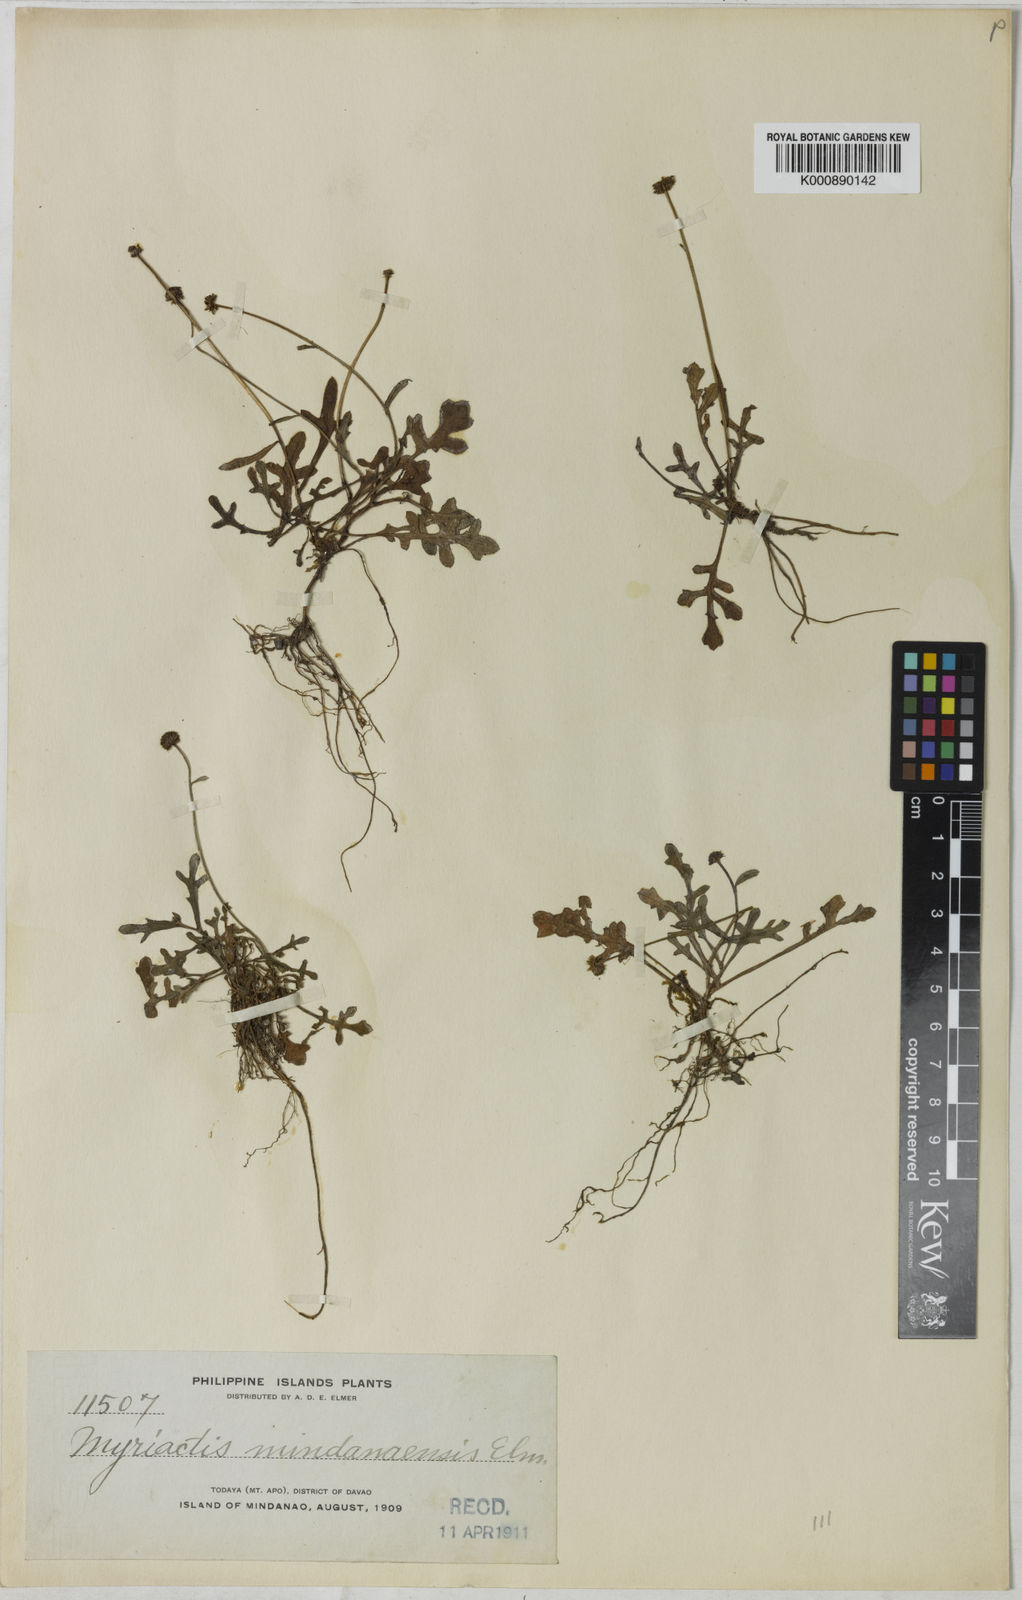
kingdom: Plantae
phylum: Tracheophyta
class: Magnoliopsida
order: Asterales
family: Asteraceae
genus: Myriactis
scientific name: Myriactis humilis
